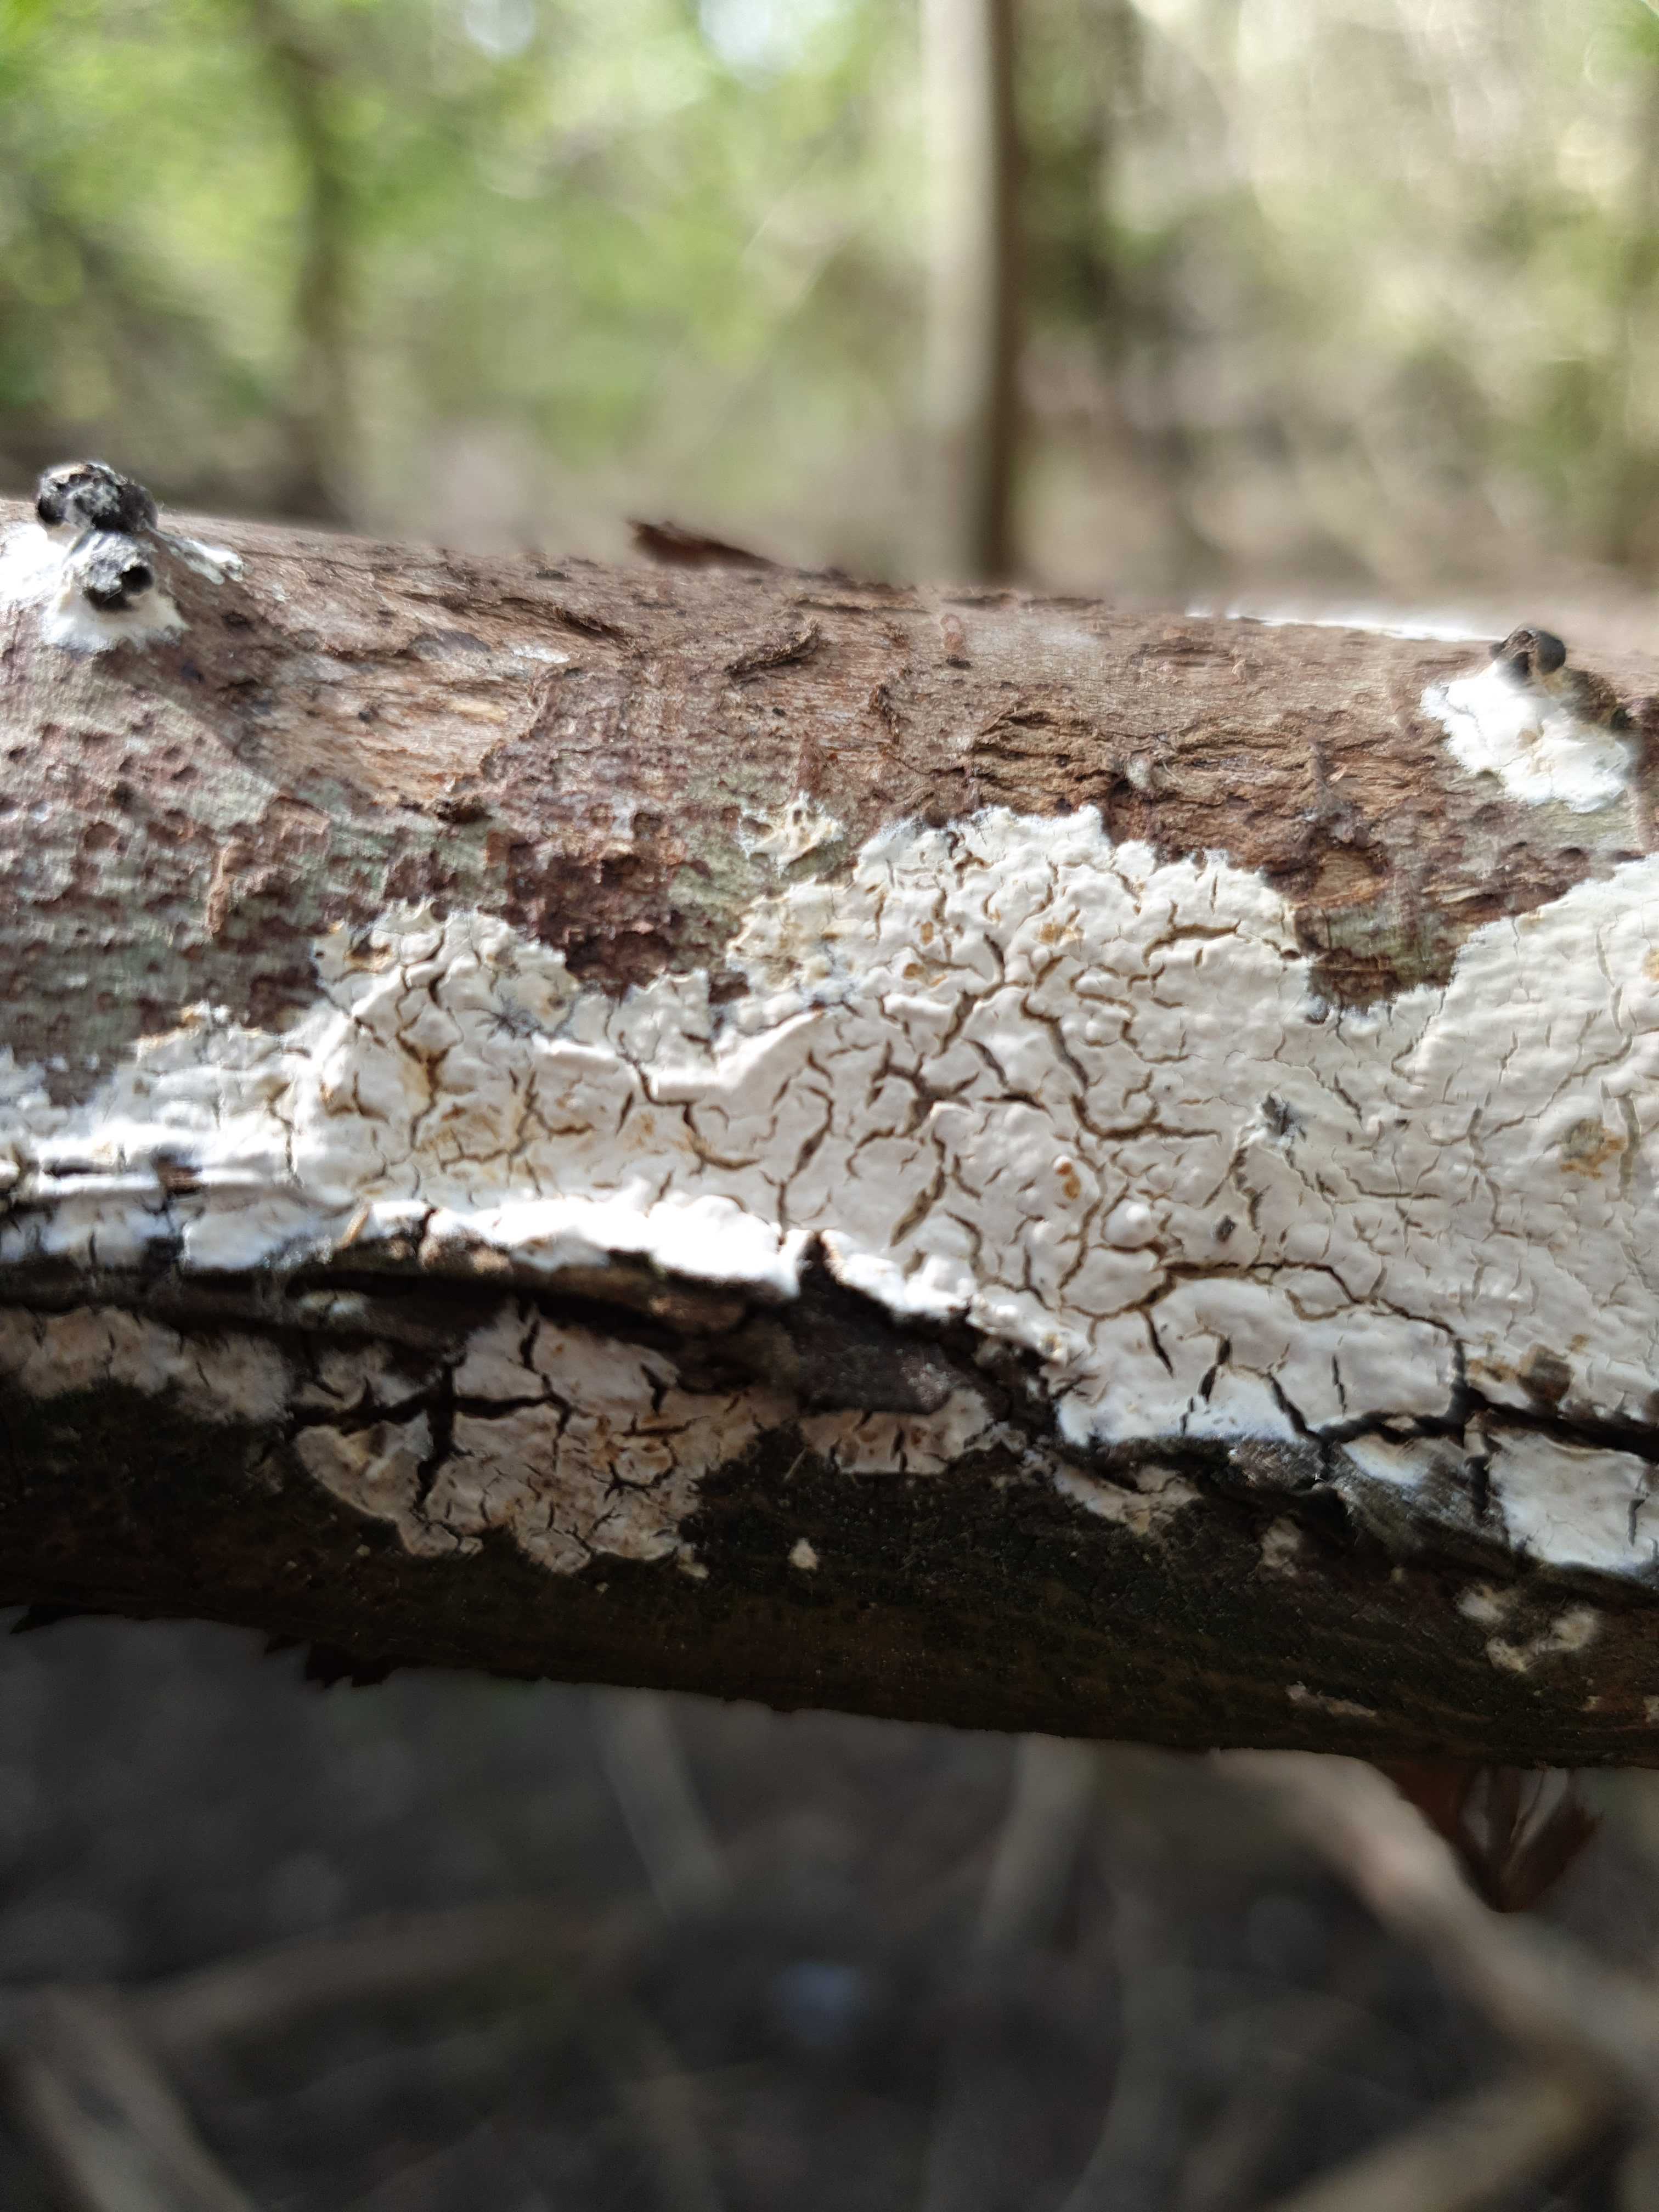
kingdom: Fungi
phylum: Basidiomycota
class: Agaricomycetes
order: Agaricales
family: Physalacriaceae
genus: Cylindrobasidium
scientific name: Cylindrobasidium evolvens
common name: sprækkehinde
